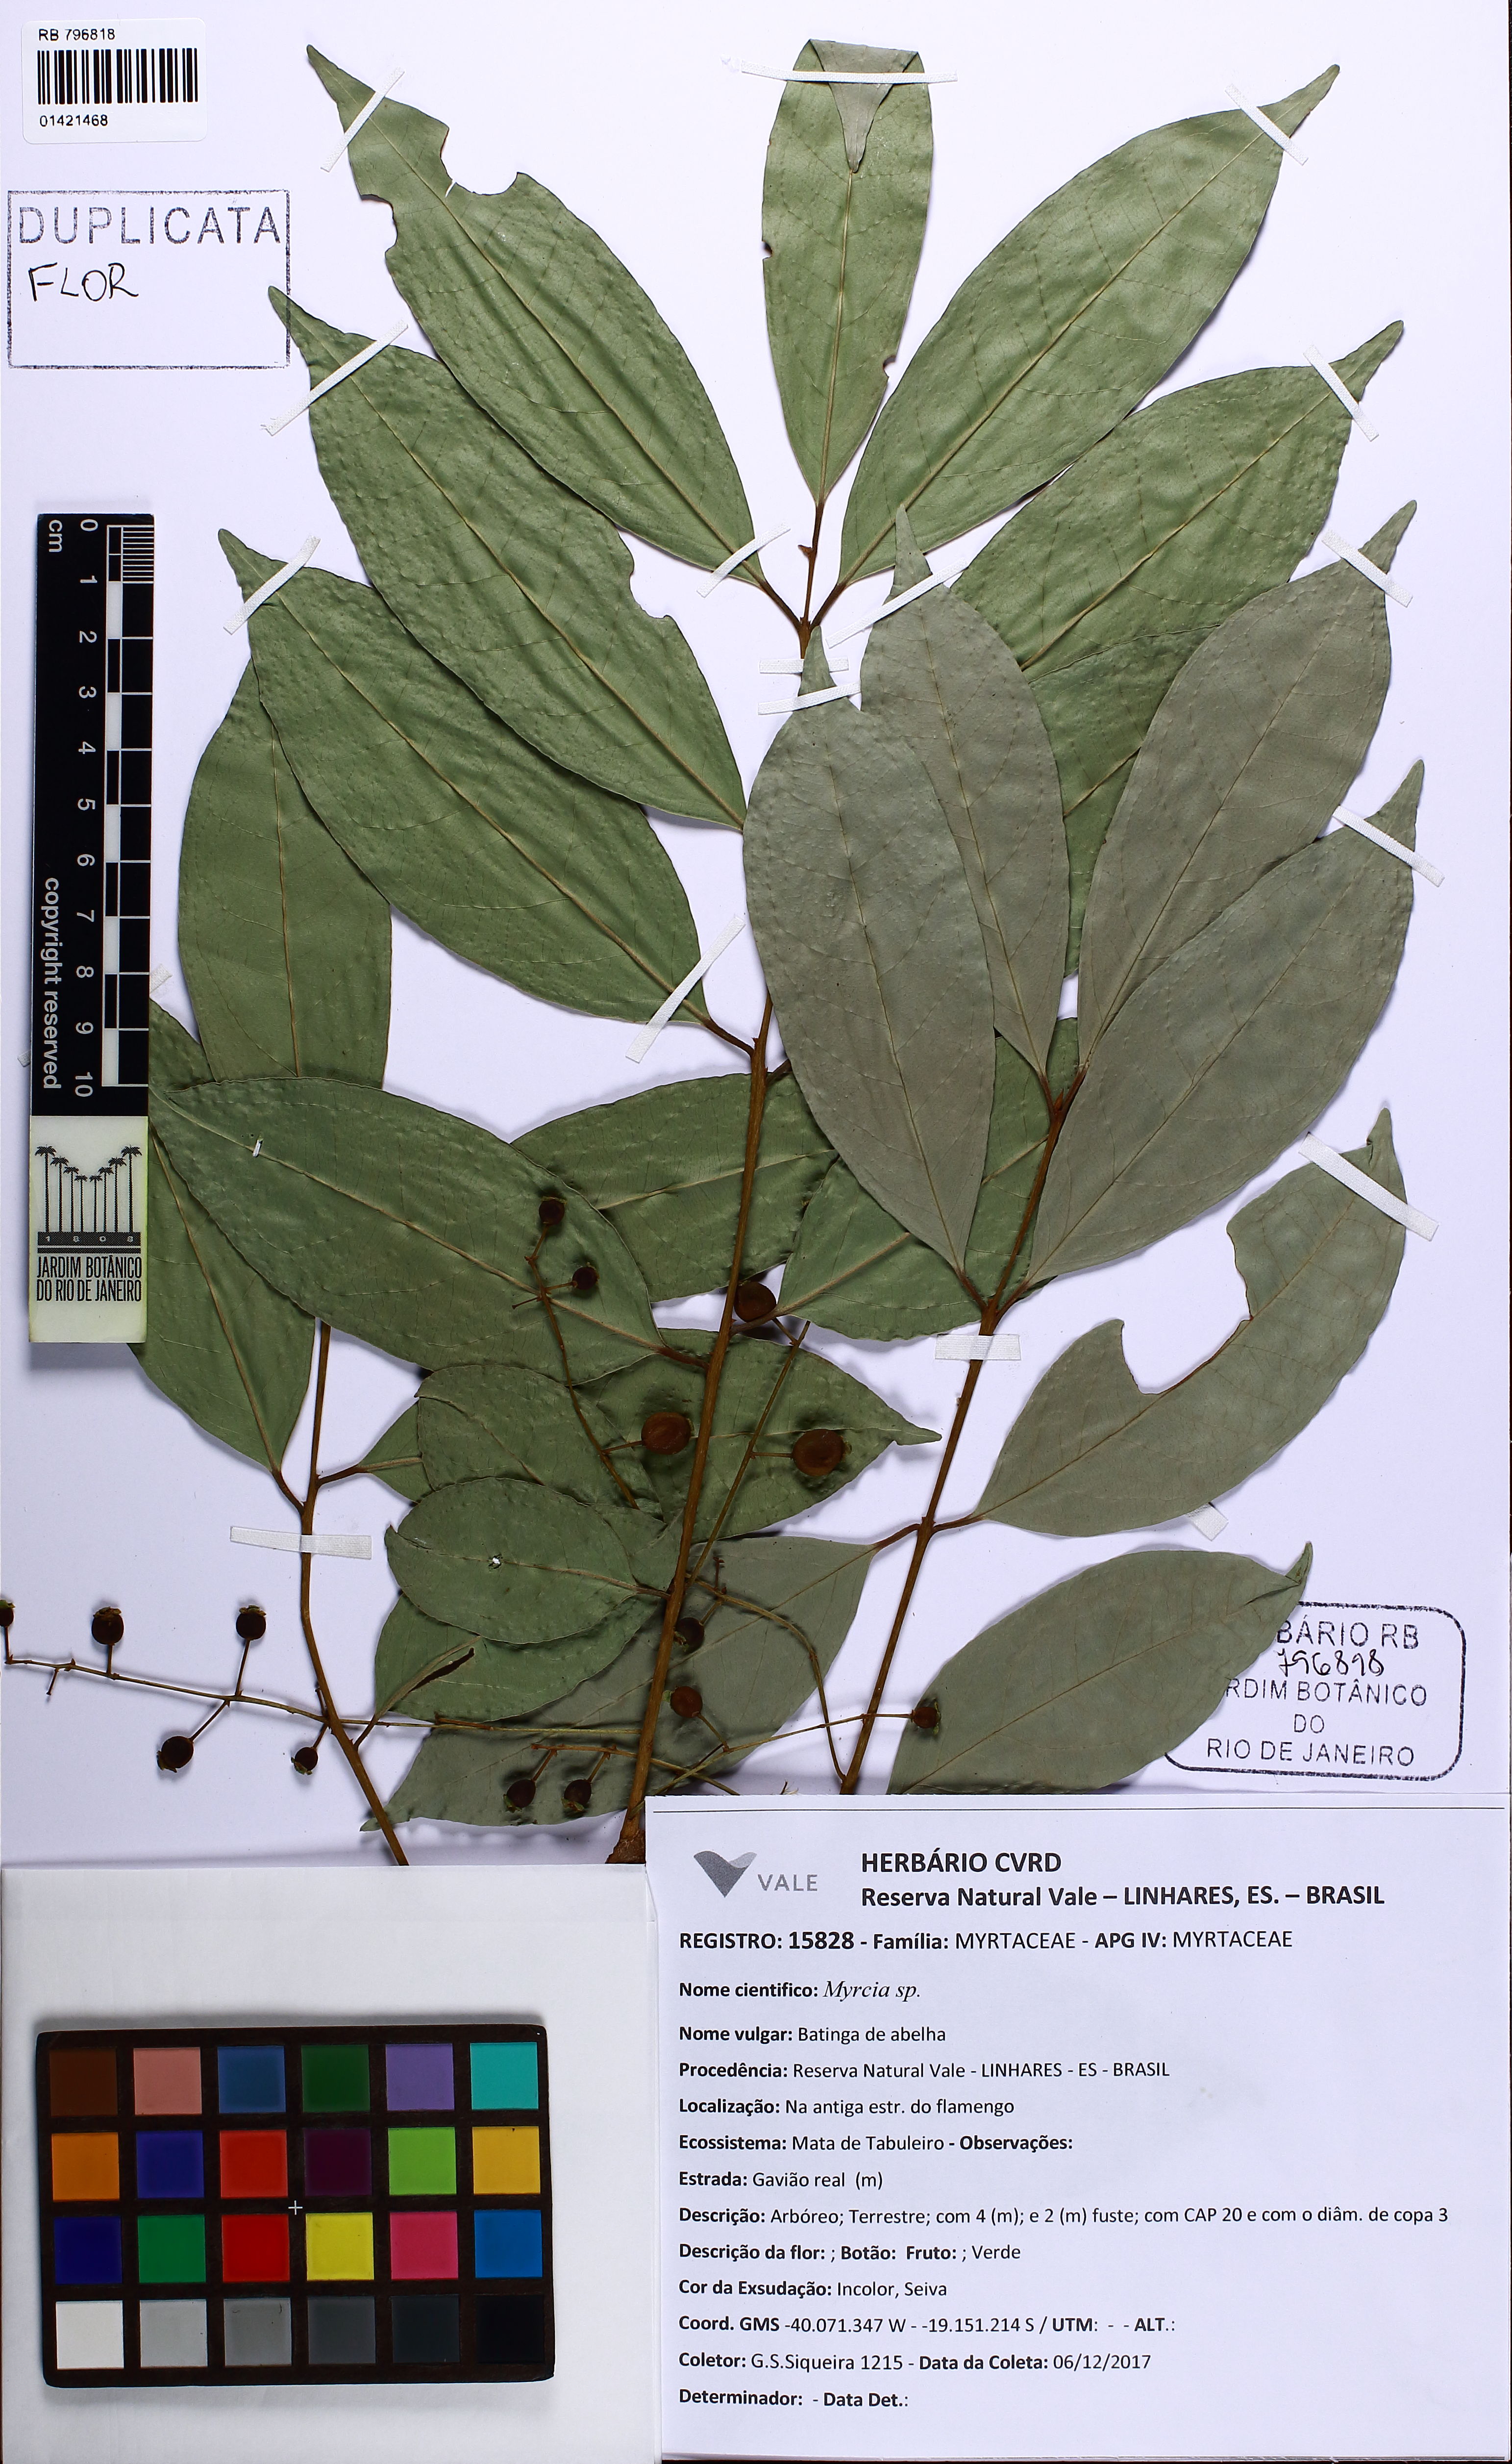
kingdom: Plantae
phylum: Tracheophyta
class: Magnoliopsida
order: Myrtales
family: Myrtaceae
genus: Eugenia
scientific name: Eugenia florida
